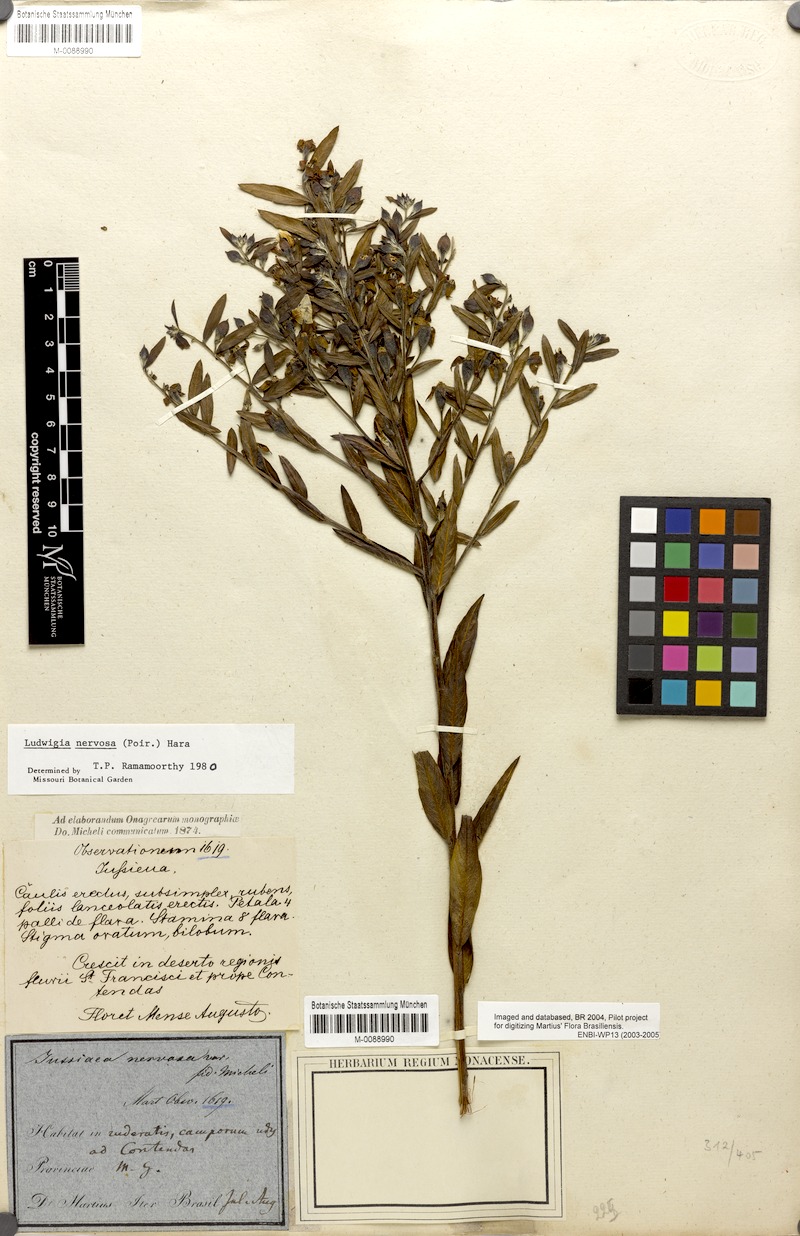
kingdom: Plantae
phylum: Tracheophyta
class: Magnoliopsida
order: Myrtales
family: Onagraceae
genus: Ludwigia
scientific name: Ludwigia nervosa
